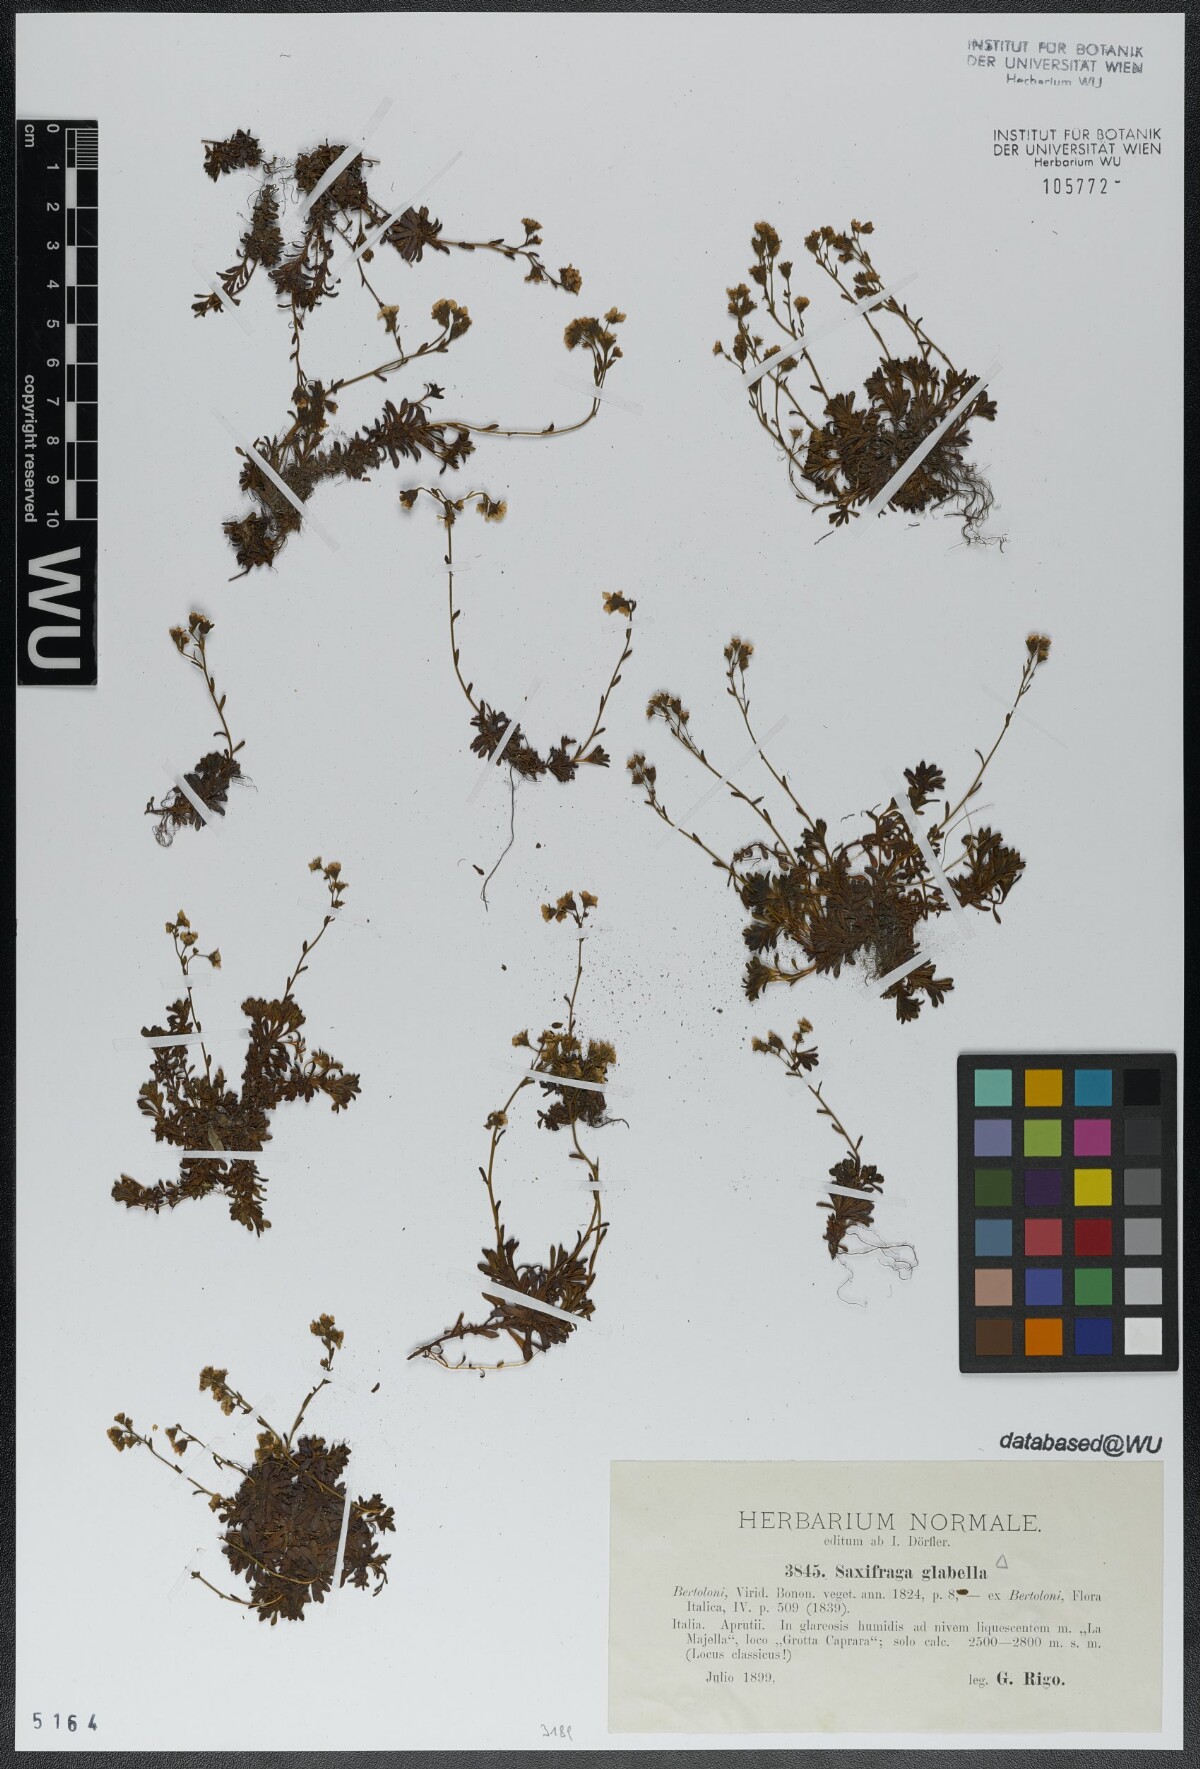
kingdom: Plantae
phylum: Tracheophyta
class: Magnoliopsida
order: Saxifragales
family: Saxifragaceae
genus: Saxifraga
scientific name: Saxifraga glabella
